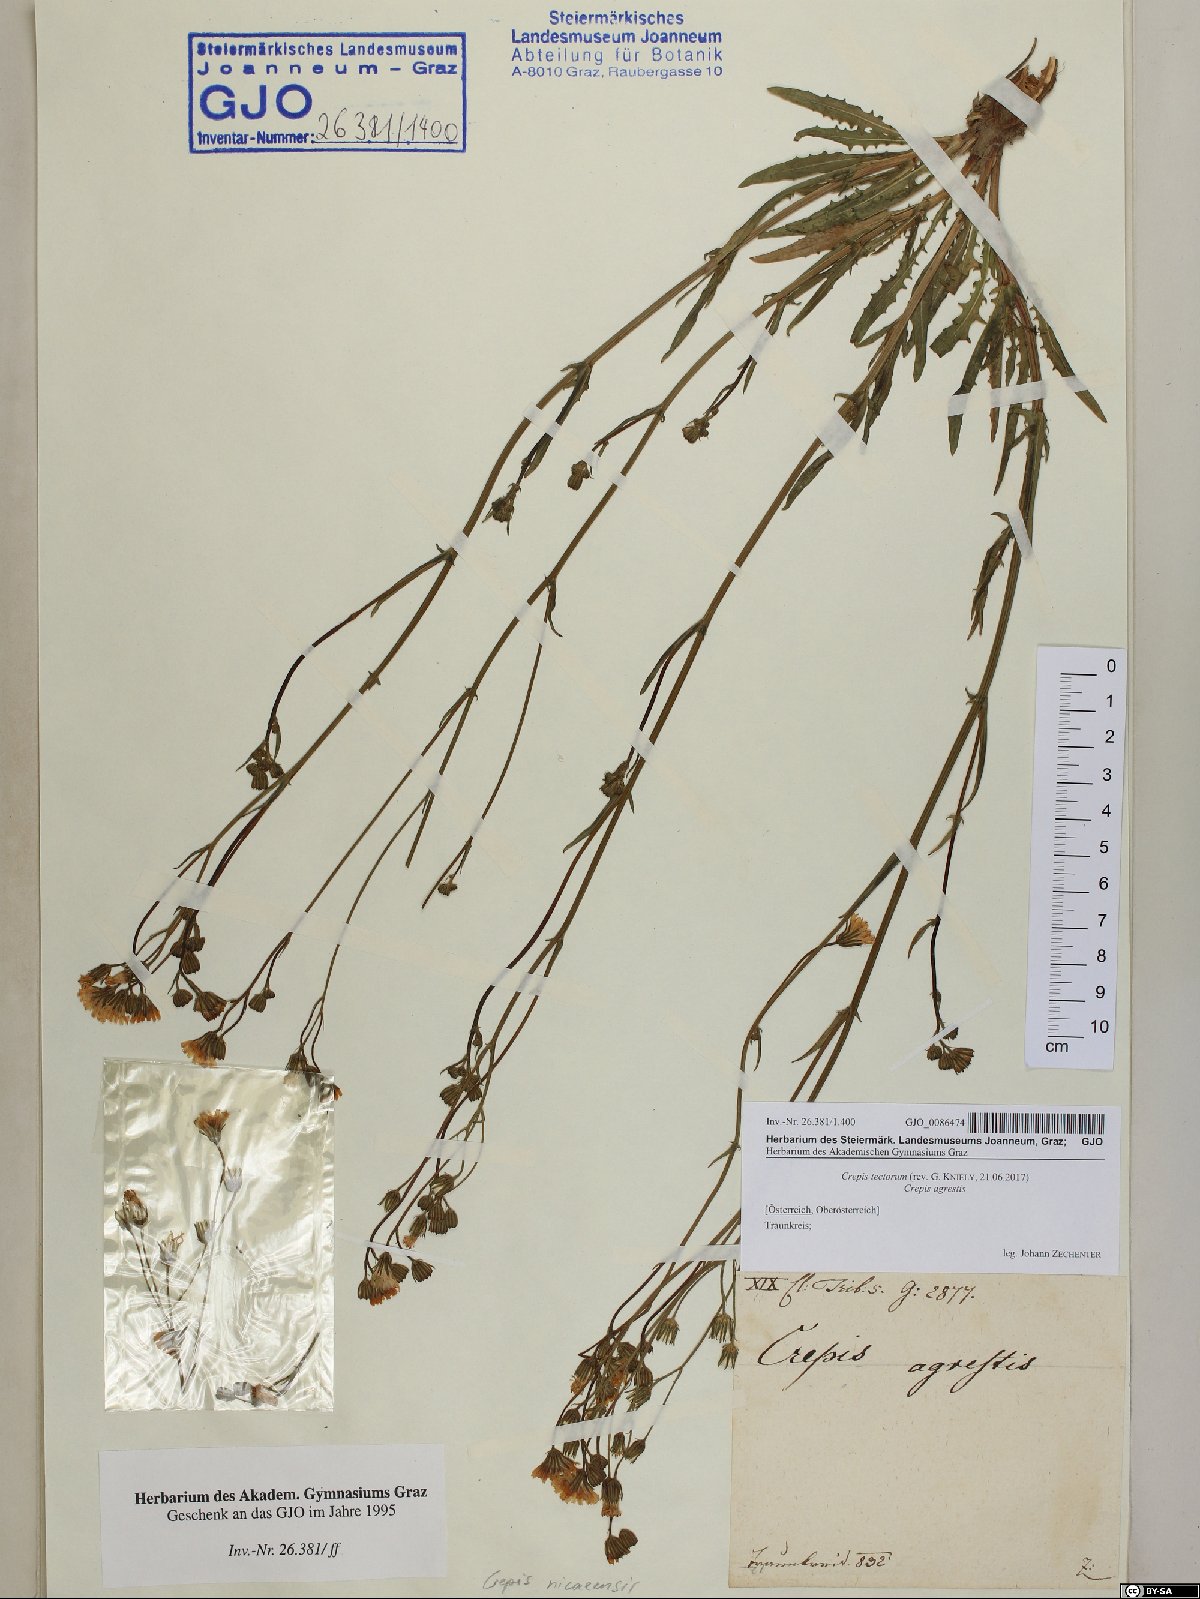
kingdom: Plantae
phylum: Tracheophyta
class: Magnoliopsida
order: Asterales
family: Asteraceae
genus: Crepis
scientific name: Crepis tectorum
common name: Narrow-leaved hawk's-beard
